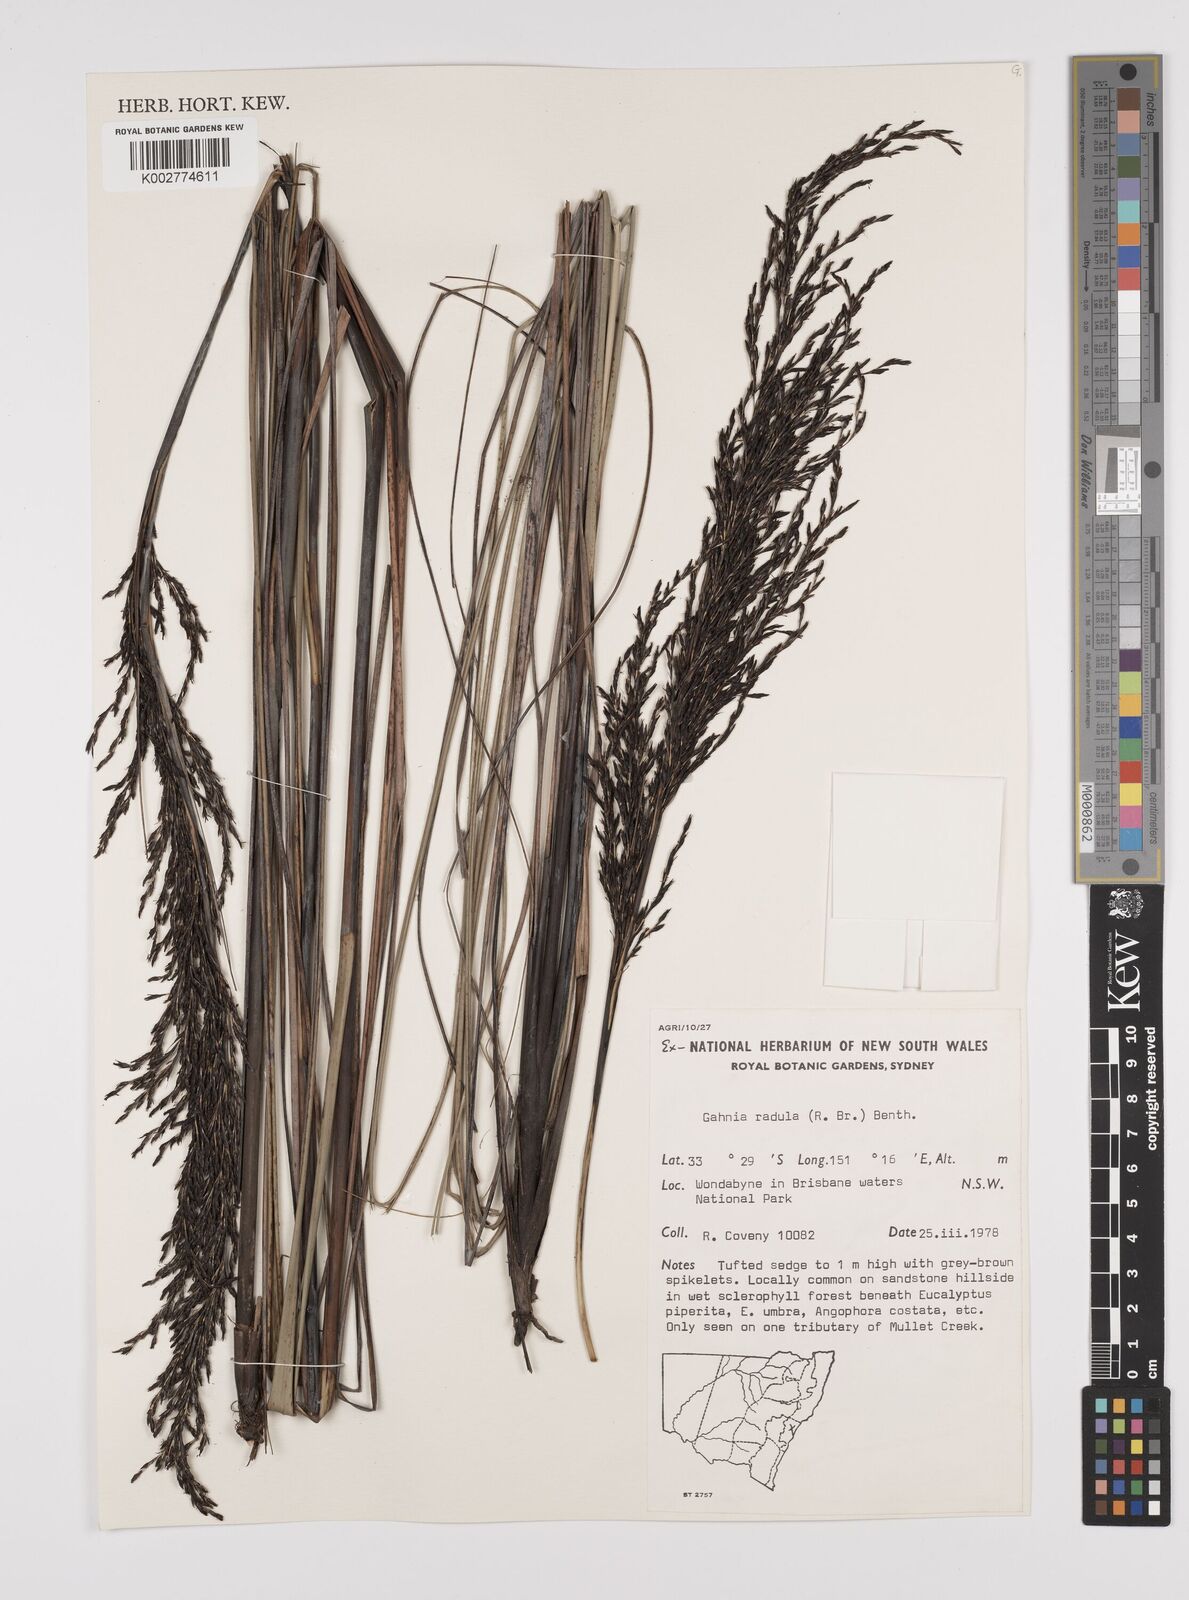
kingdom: Plantae
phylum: Tracheophyta
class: Liliopsida
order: Poales
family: Cyperaceae
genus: Gahnia
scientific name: Gahnia radula
